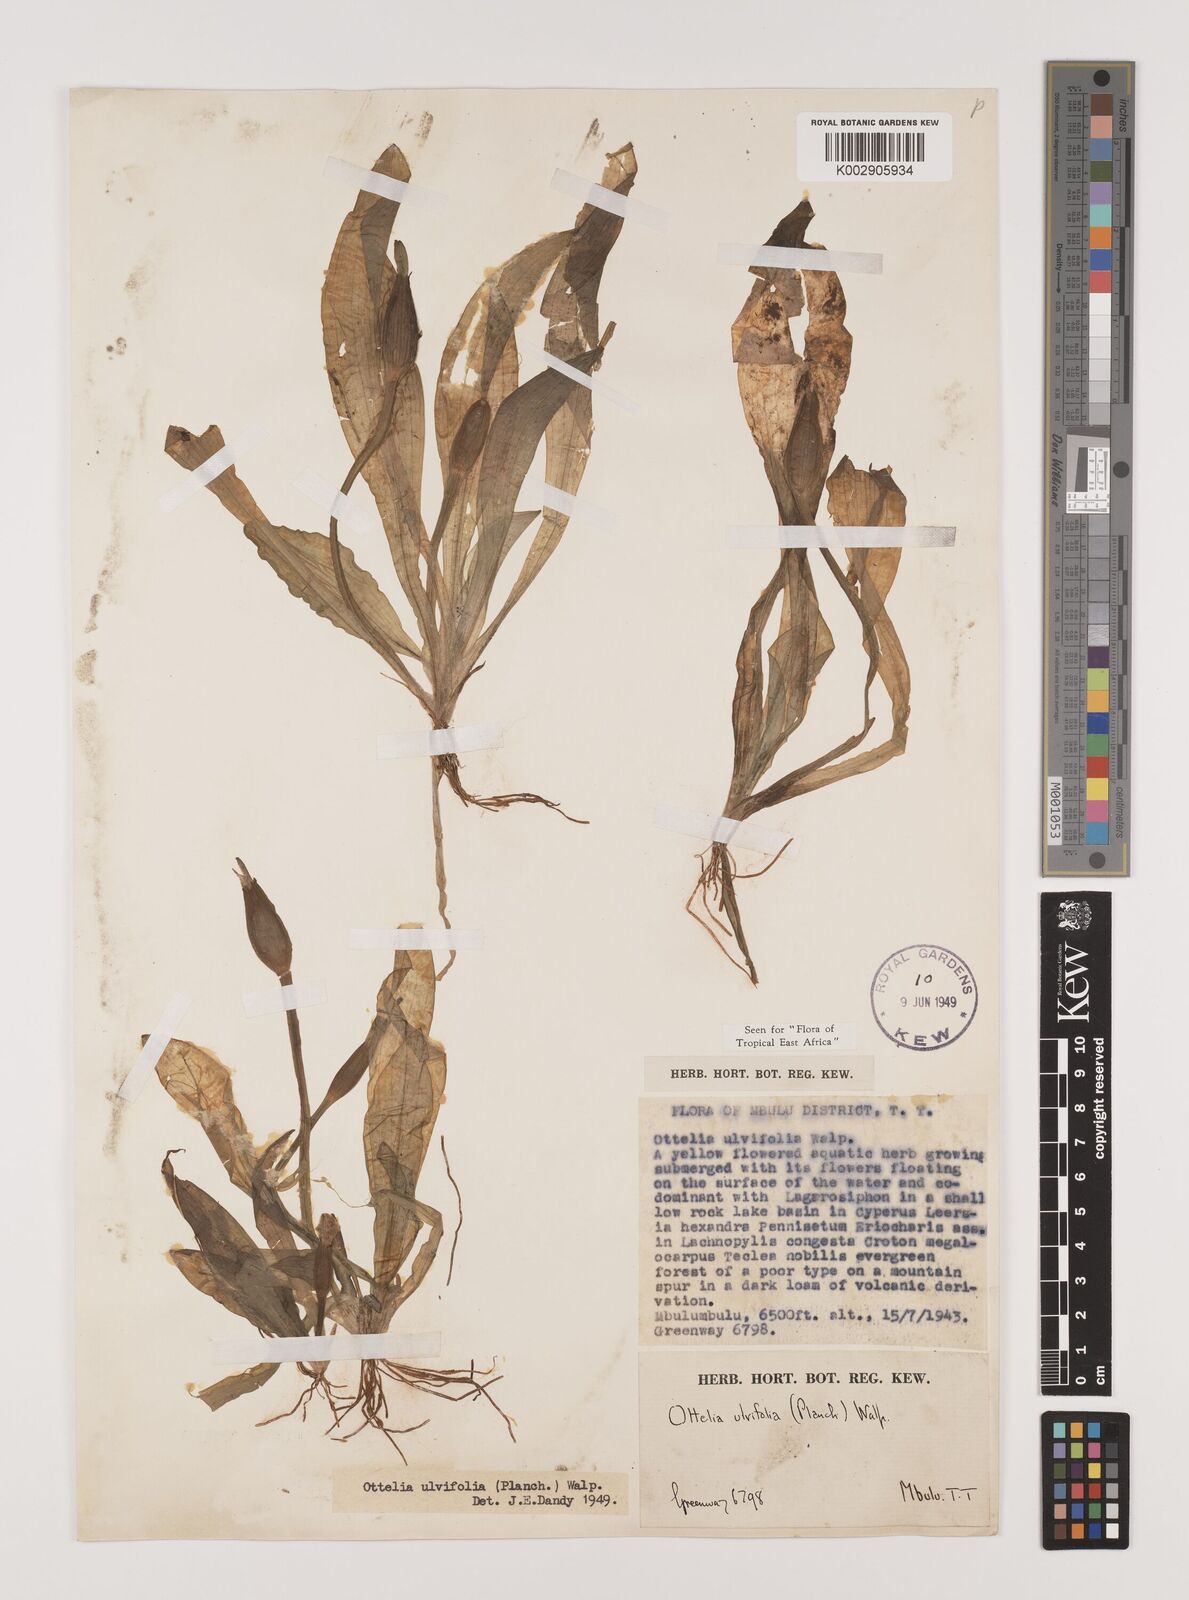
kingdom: Plantae
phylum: Tracheophyta
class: Liliopsida
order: Alismatales
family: Hydrocharitaceae
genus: Ottelia
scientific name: Ottelia ulvifolia
